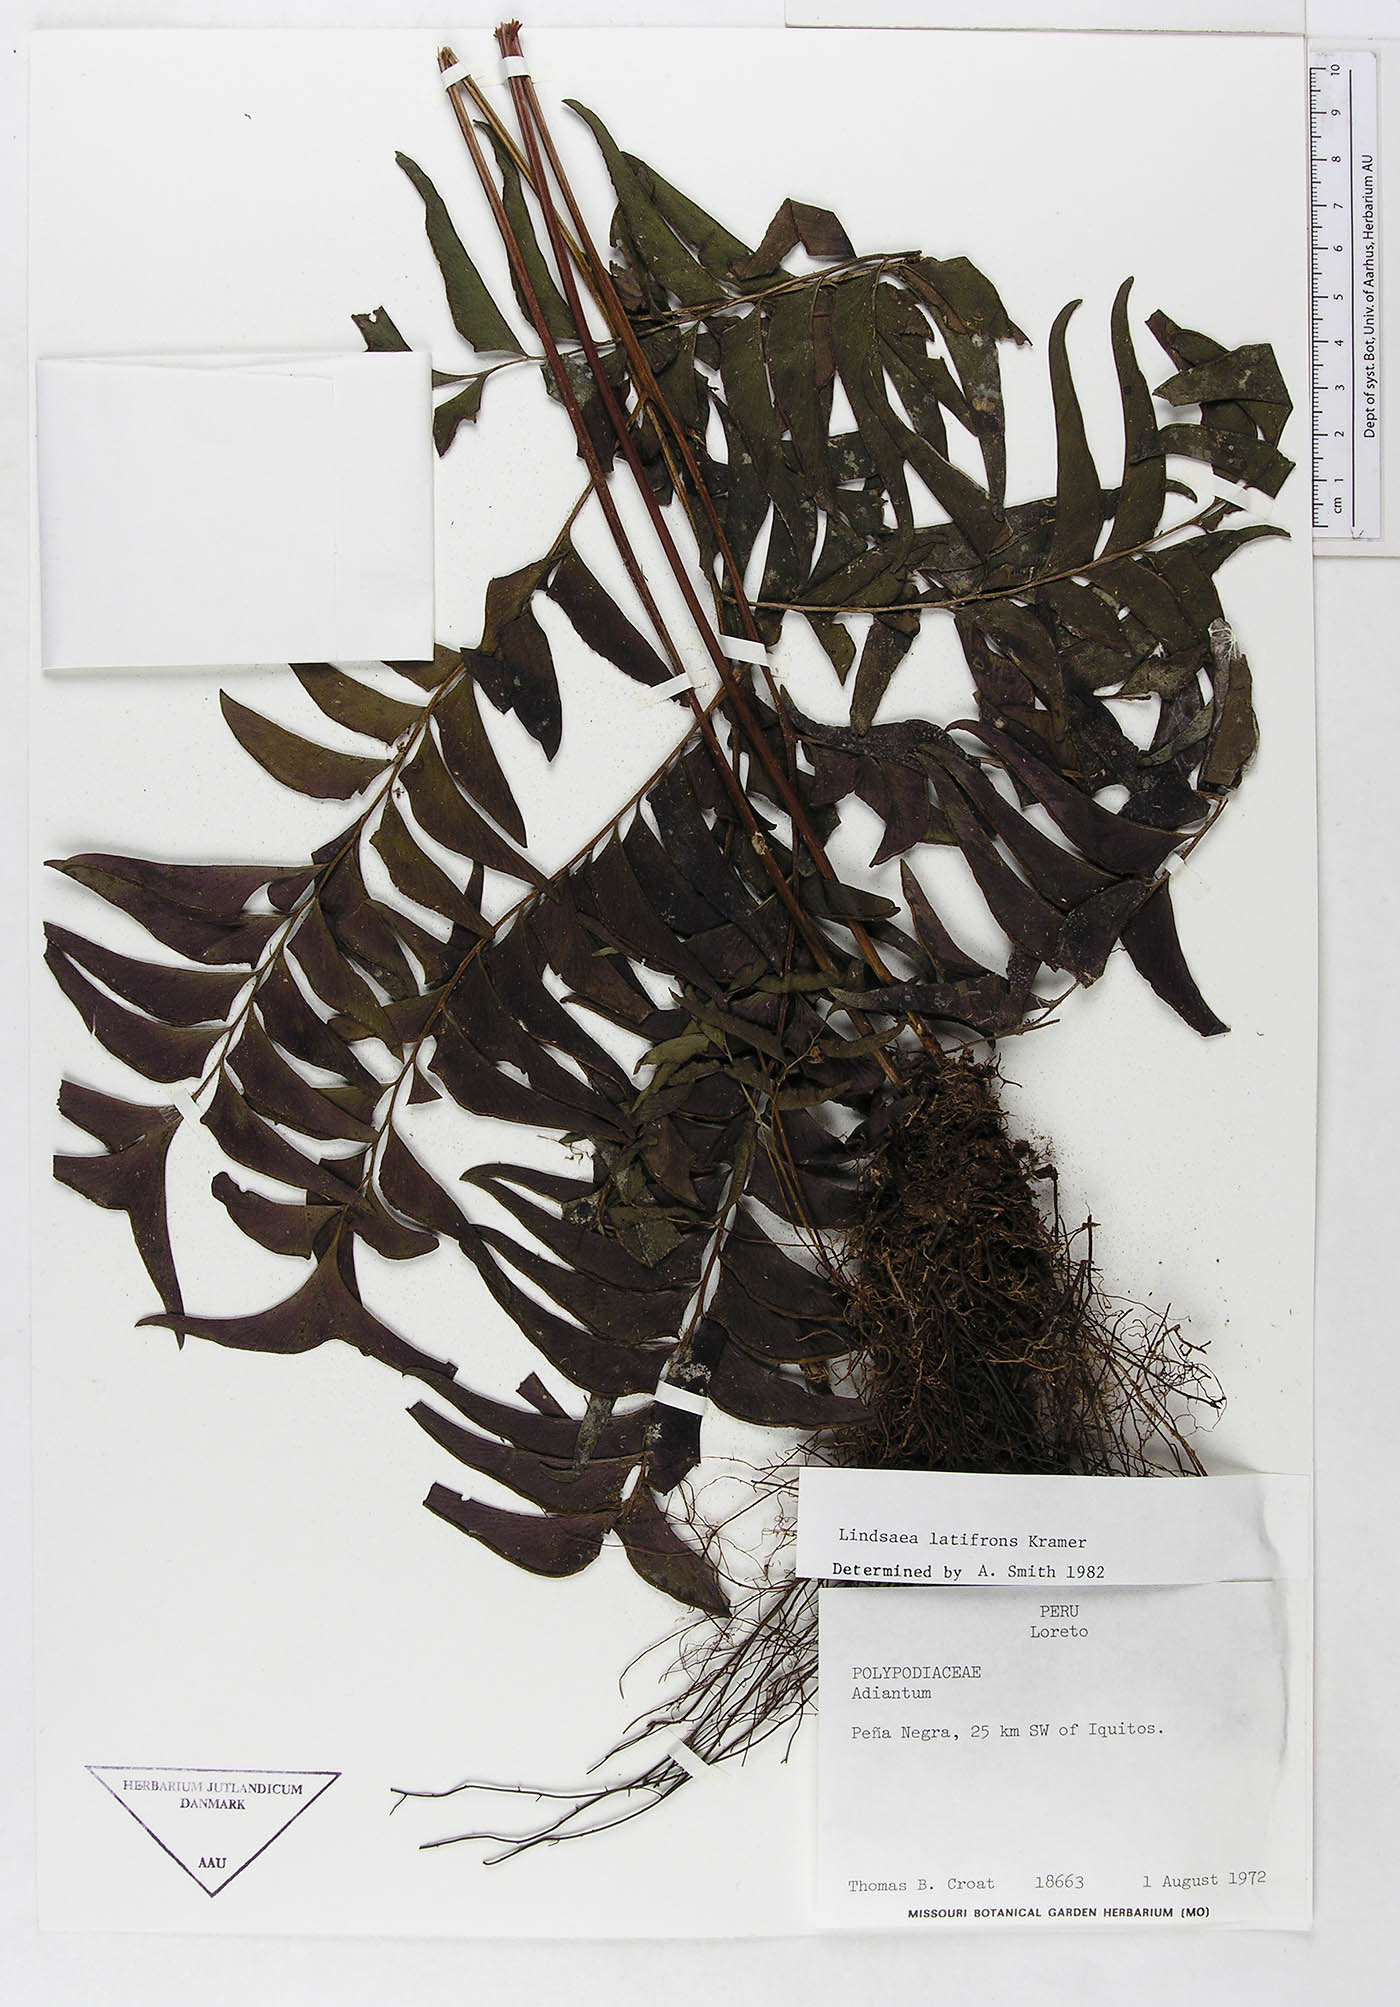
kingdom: Plantae
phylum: Tracheophyta
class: Polypodiopsida
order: Polypodiales
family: Lindsaeaceae
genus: Lindsaea
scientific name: Lindsaea latifrons
